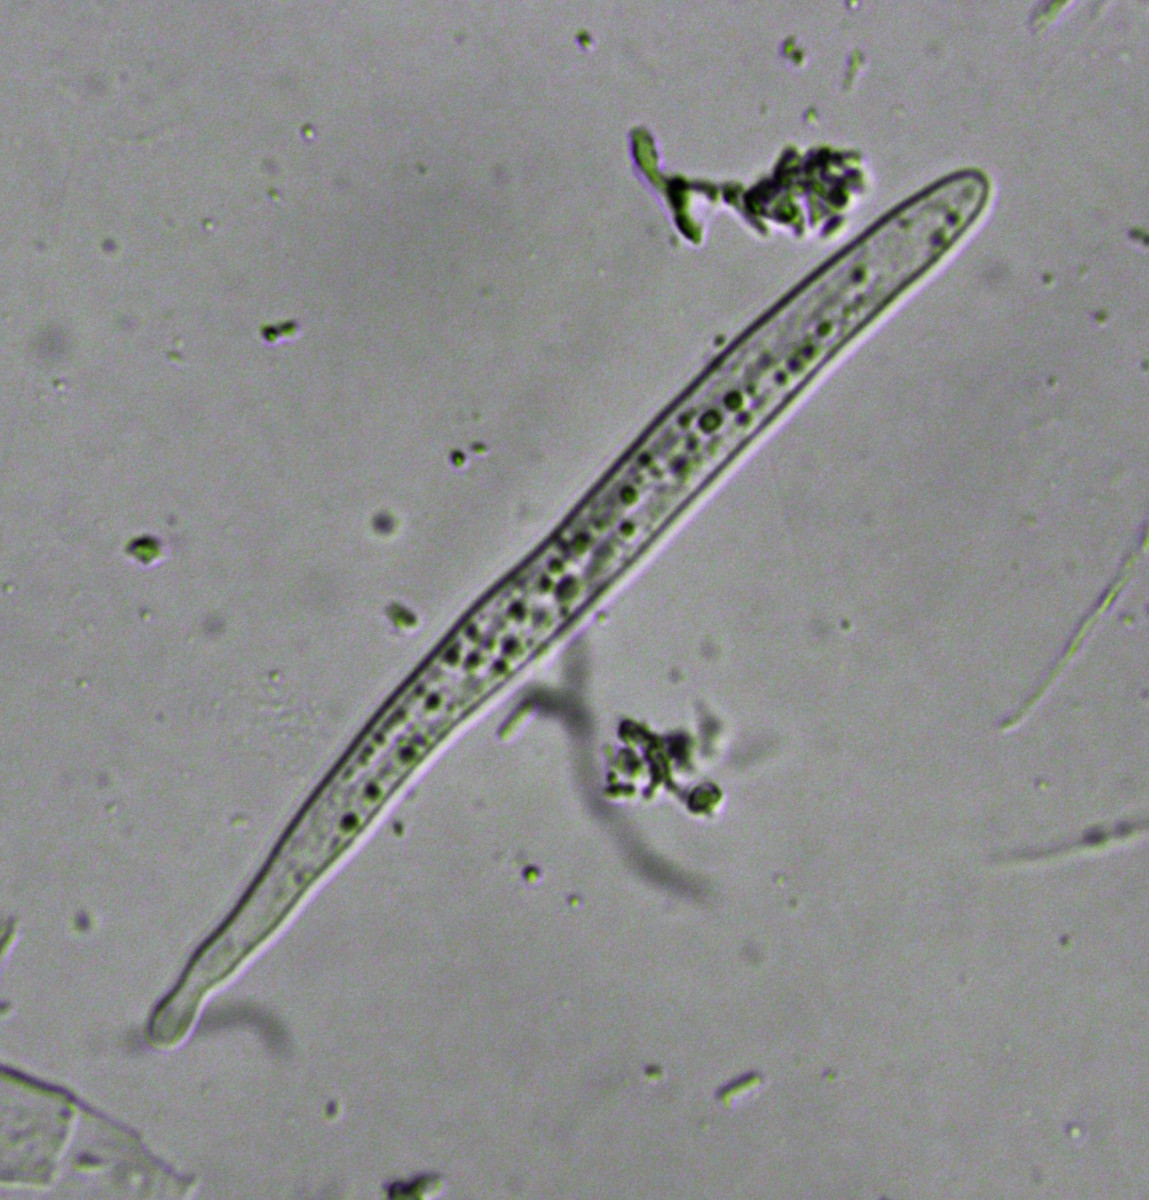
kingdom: Fungi
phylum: Ascomycota
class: Leotiomycetes
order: Rhytismatales
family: Rhytismataceae
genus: Terriera
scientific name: Terriera cladophila
